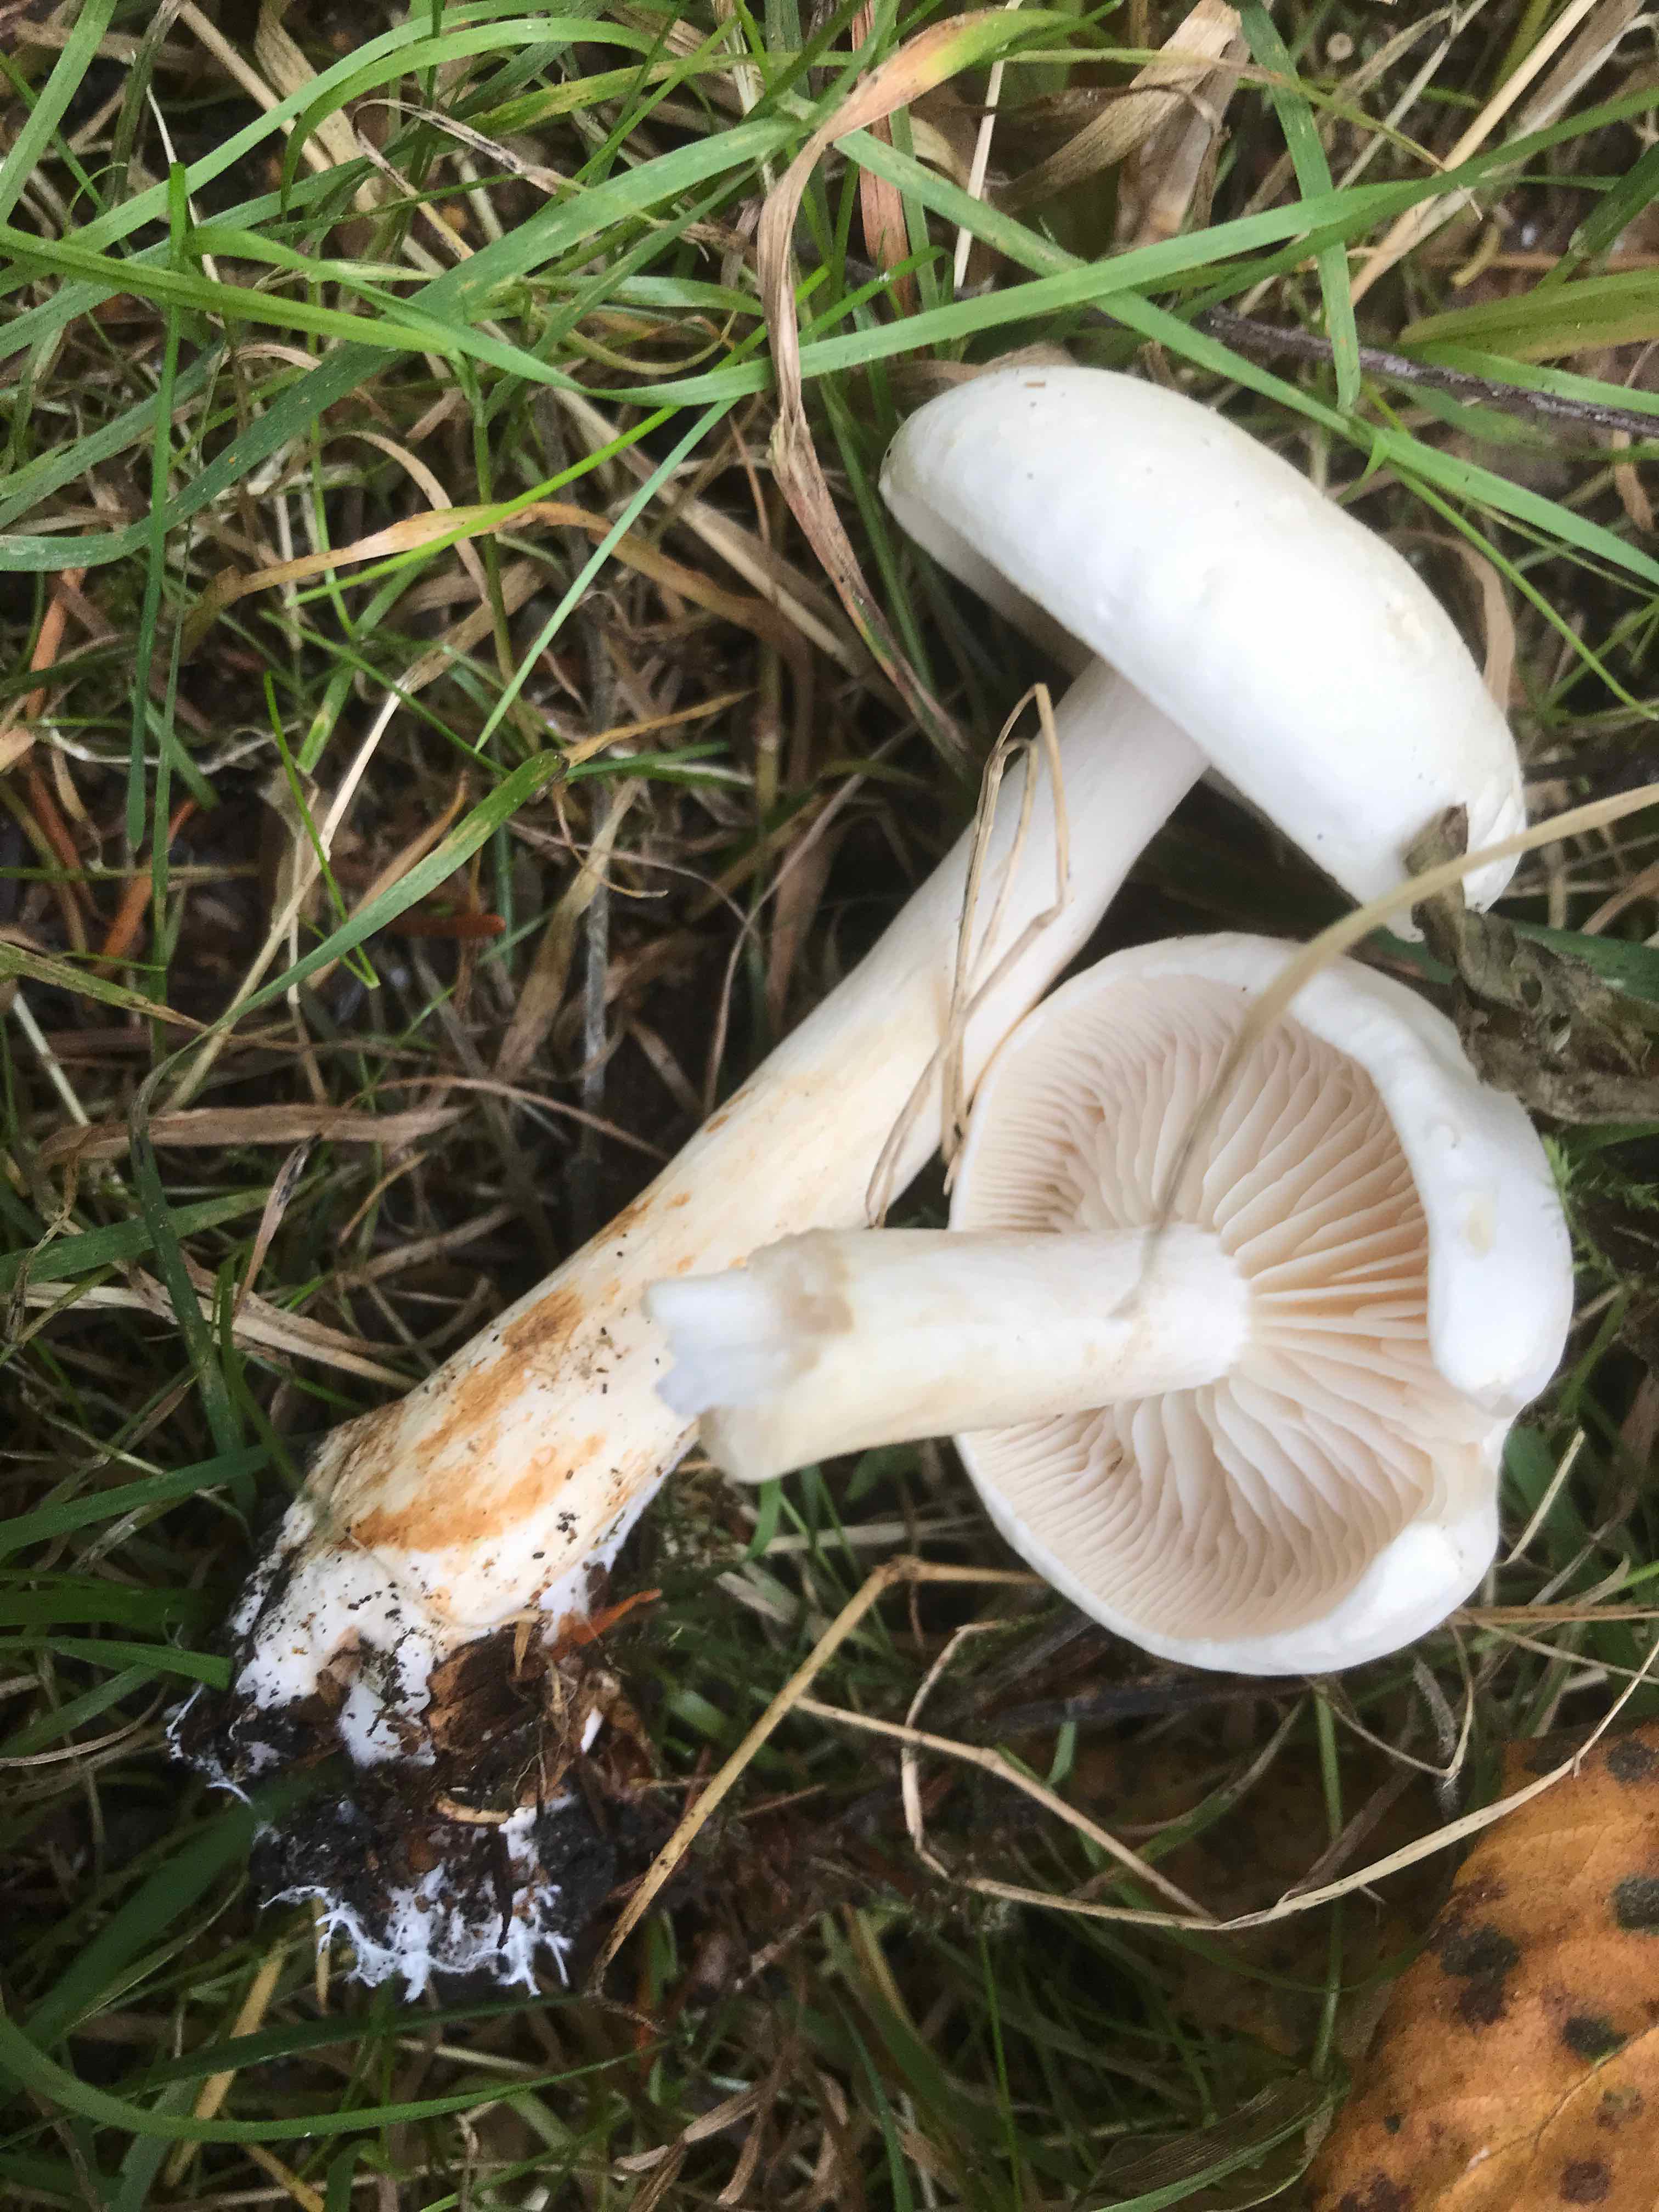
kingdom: Fungi
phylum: Basidiomycota
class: Agaricomycetes
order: Agaricales
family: Tricholomataceae
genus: Tricholoma
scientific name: Tricholoma stiparophyllum
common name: hvid ridderhat
